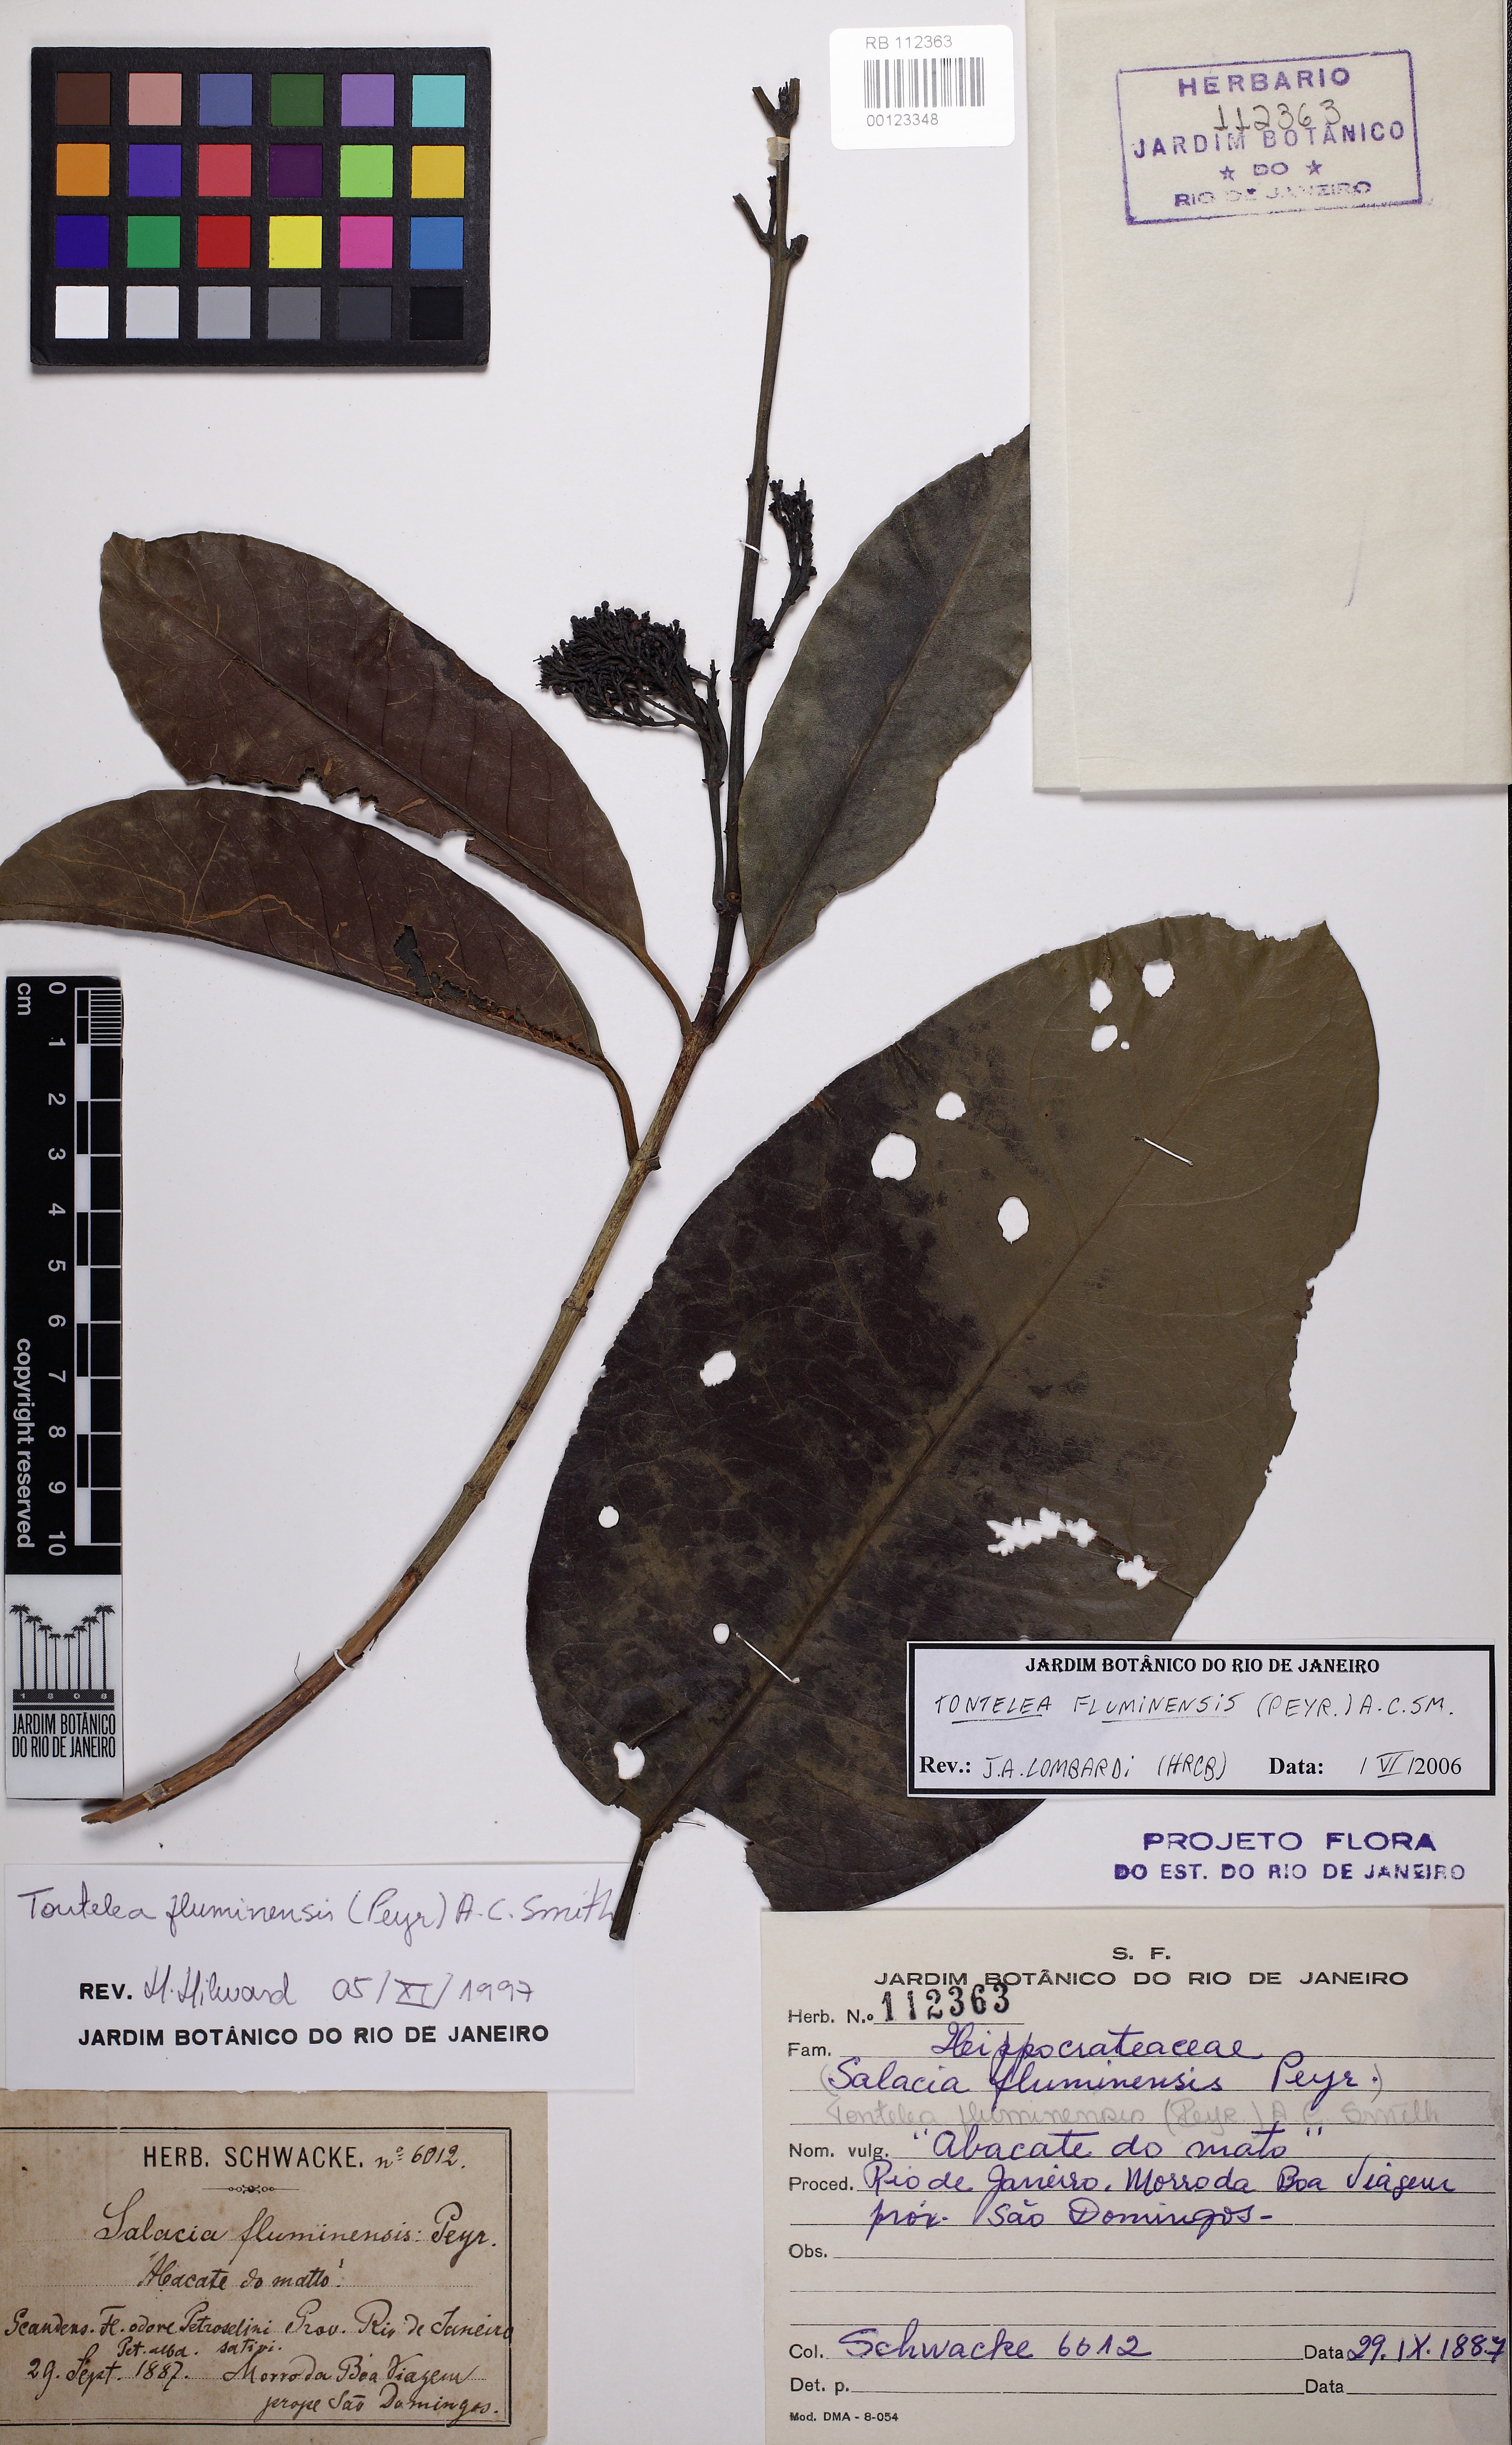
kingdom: Plantae
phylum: Tracheophyta
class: Magnoliopsida
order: Celastrales
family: Celastraceae
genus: Tontelea
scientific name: Tontelea passiflora
